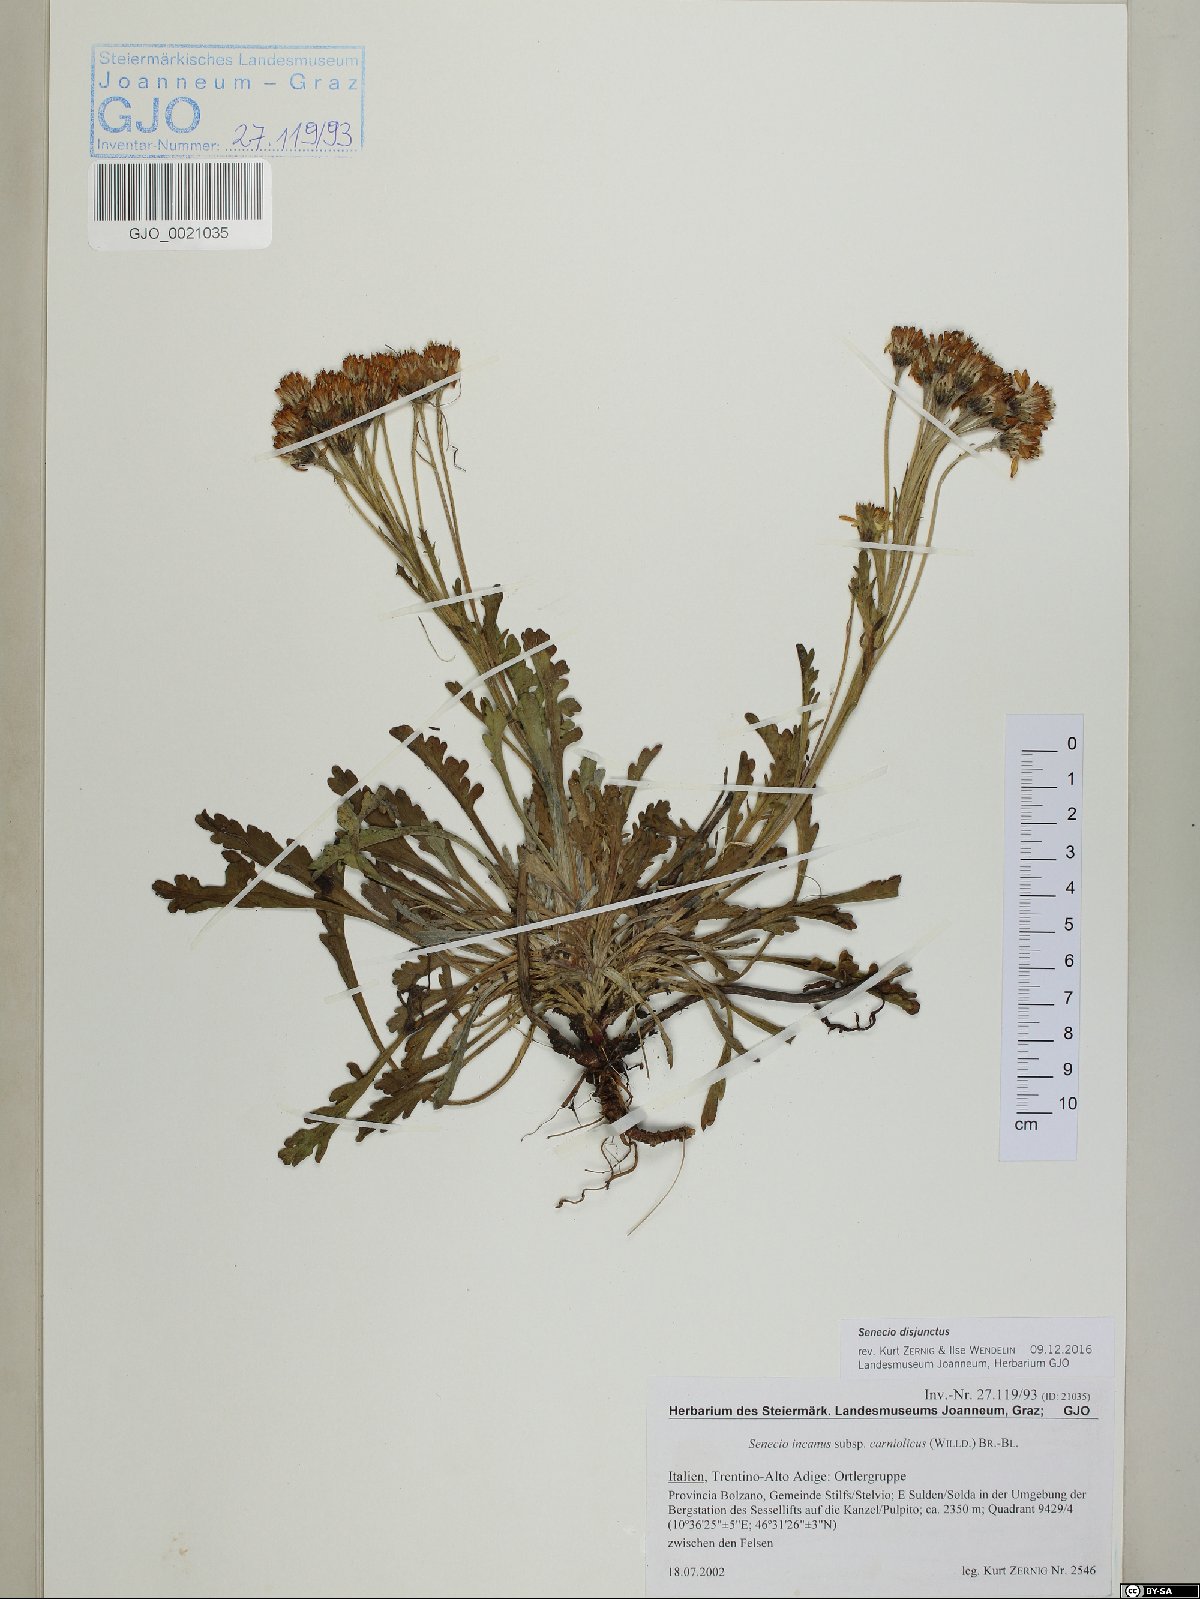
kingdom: Plantae
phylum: Tracheophyta
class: Magnoliopsida
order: Asterales
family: Asteraceae
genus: Jacobaea
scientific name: Jacobaea disjuncta
